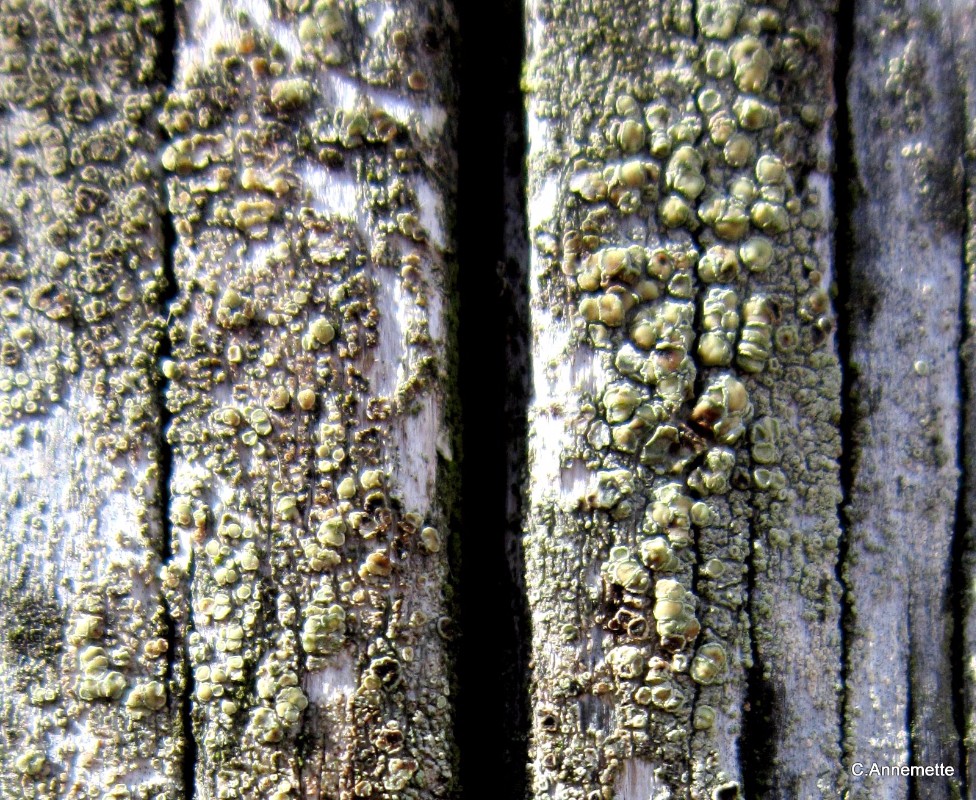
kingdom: Fungi
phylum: Ascomycota
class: Lecanoromycetes
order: Lecanorales
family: Lecanoraceae
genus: Straminella
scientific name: Straminella conizaeoides
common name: by-kantskivelav
